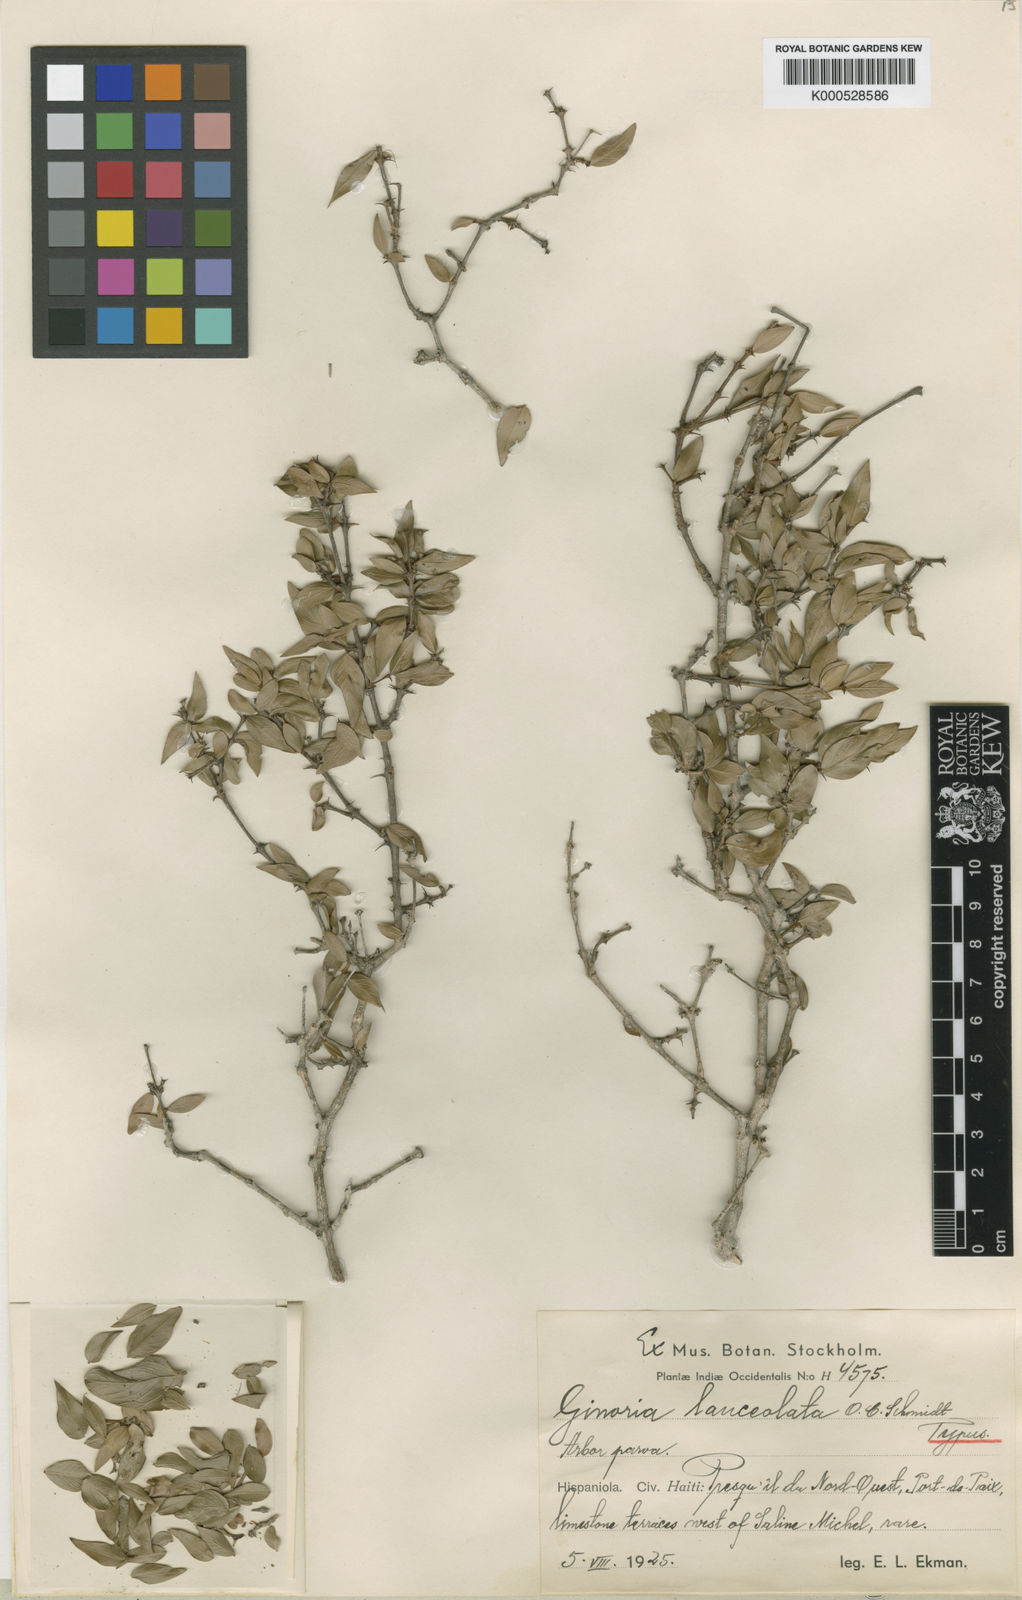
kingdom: Plantae
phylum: Tracheophyta
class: Magnoliopsida
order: Myrtales
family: Lythraceae
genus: Ginoria
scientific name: Ginoria lanceolata
